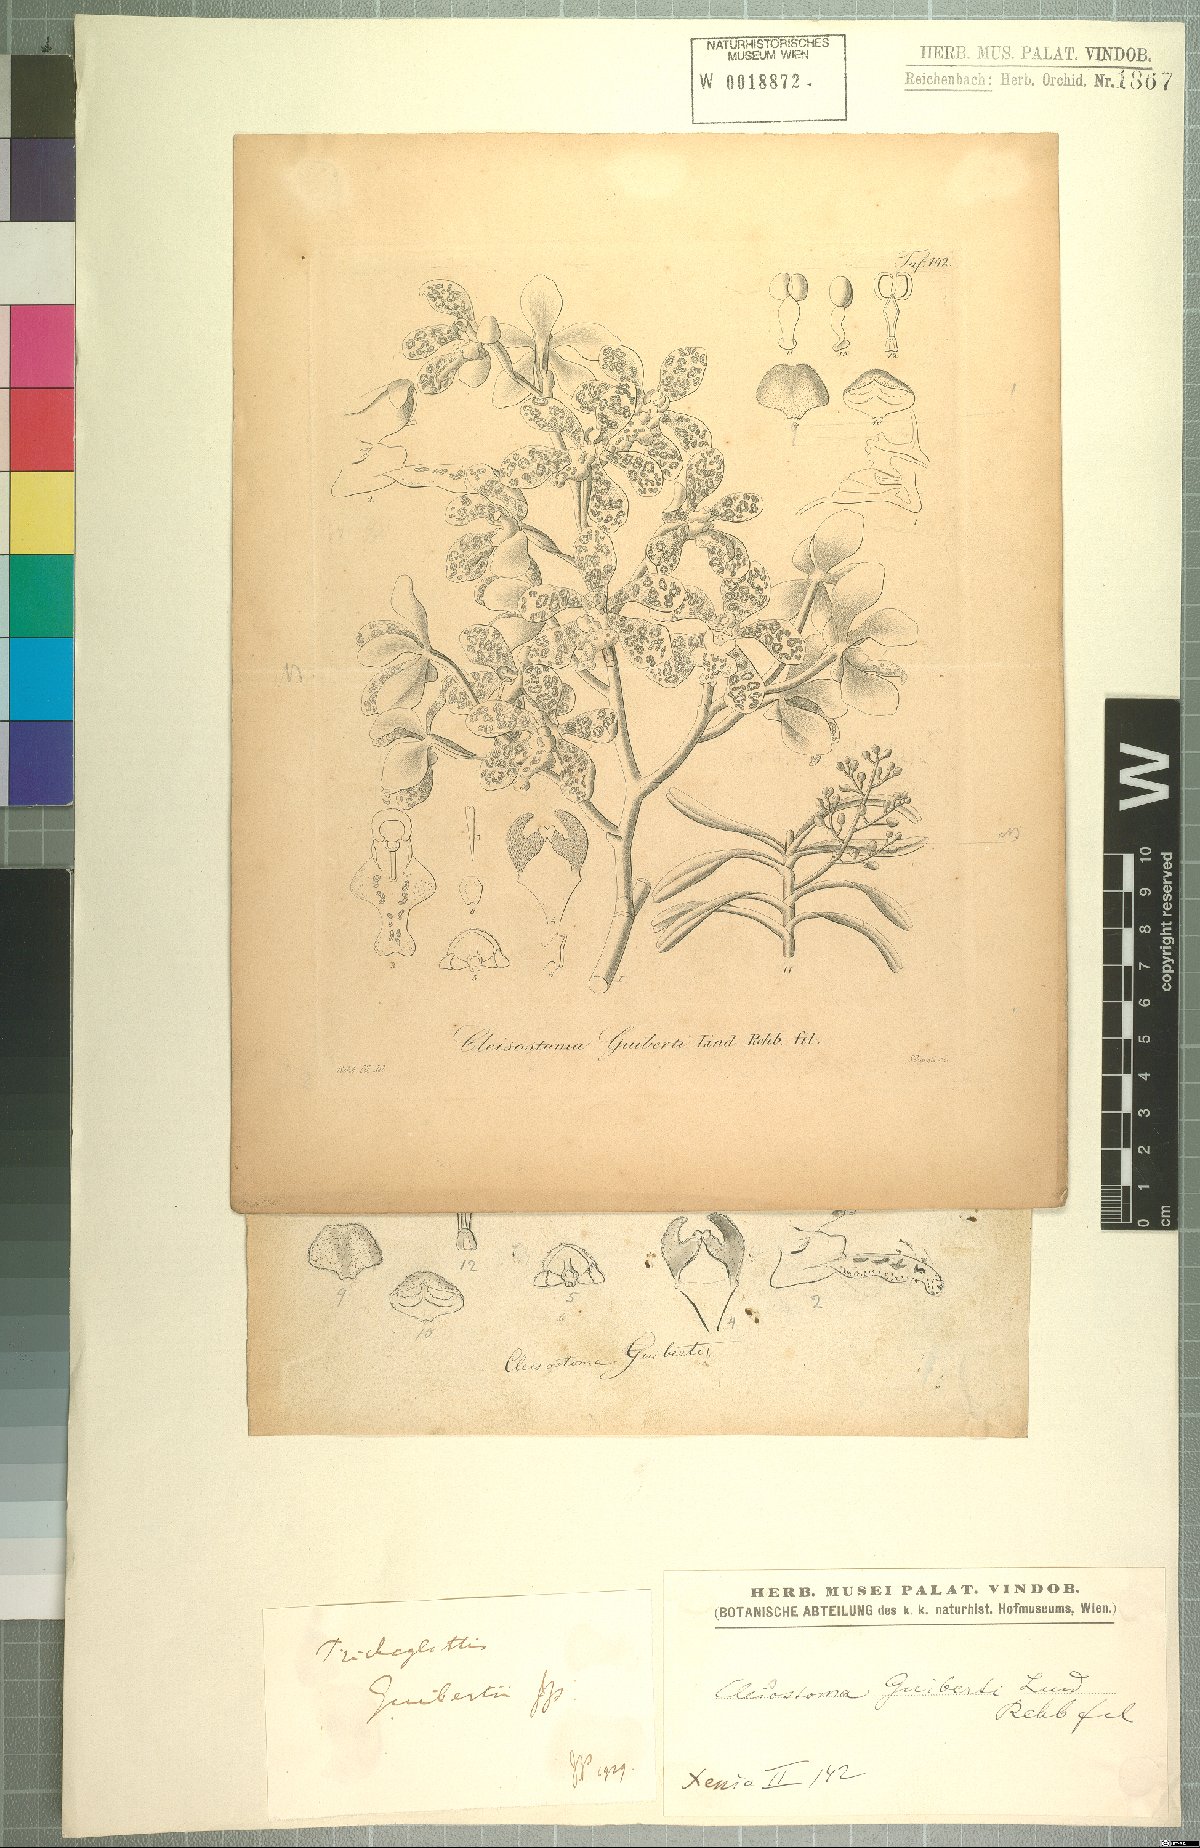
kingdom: Plantae
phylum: Tracheophyta
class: Liliopsida
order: Asparagales
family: Orchidaceae
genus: Trichoglottis
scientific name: Trichoglottis guibertii
